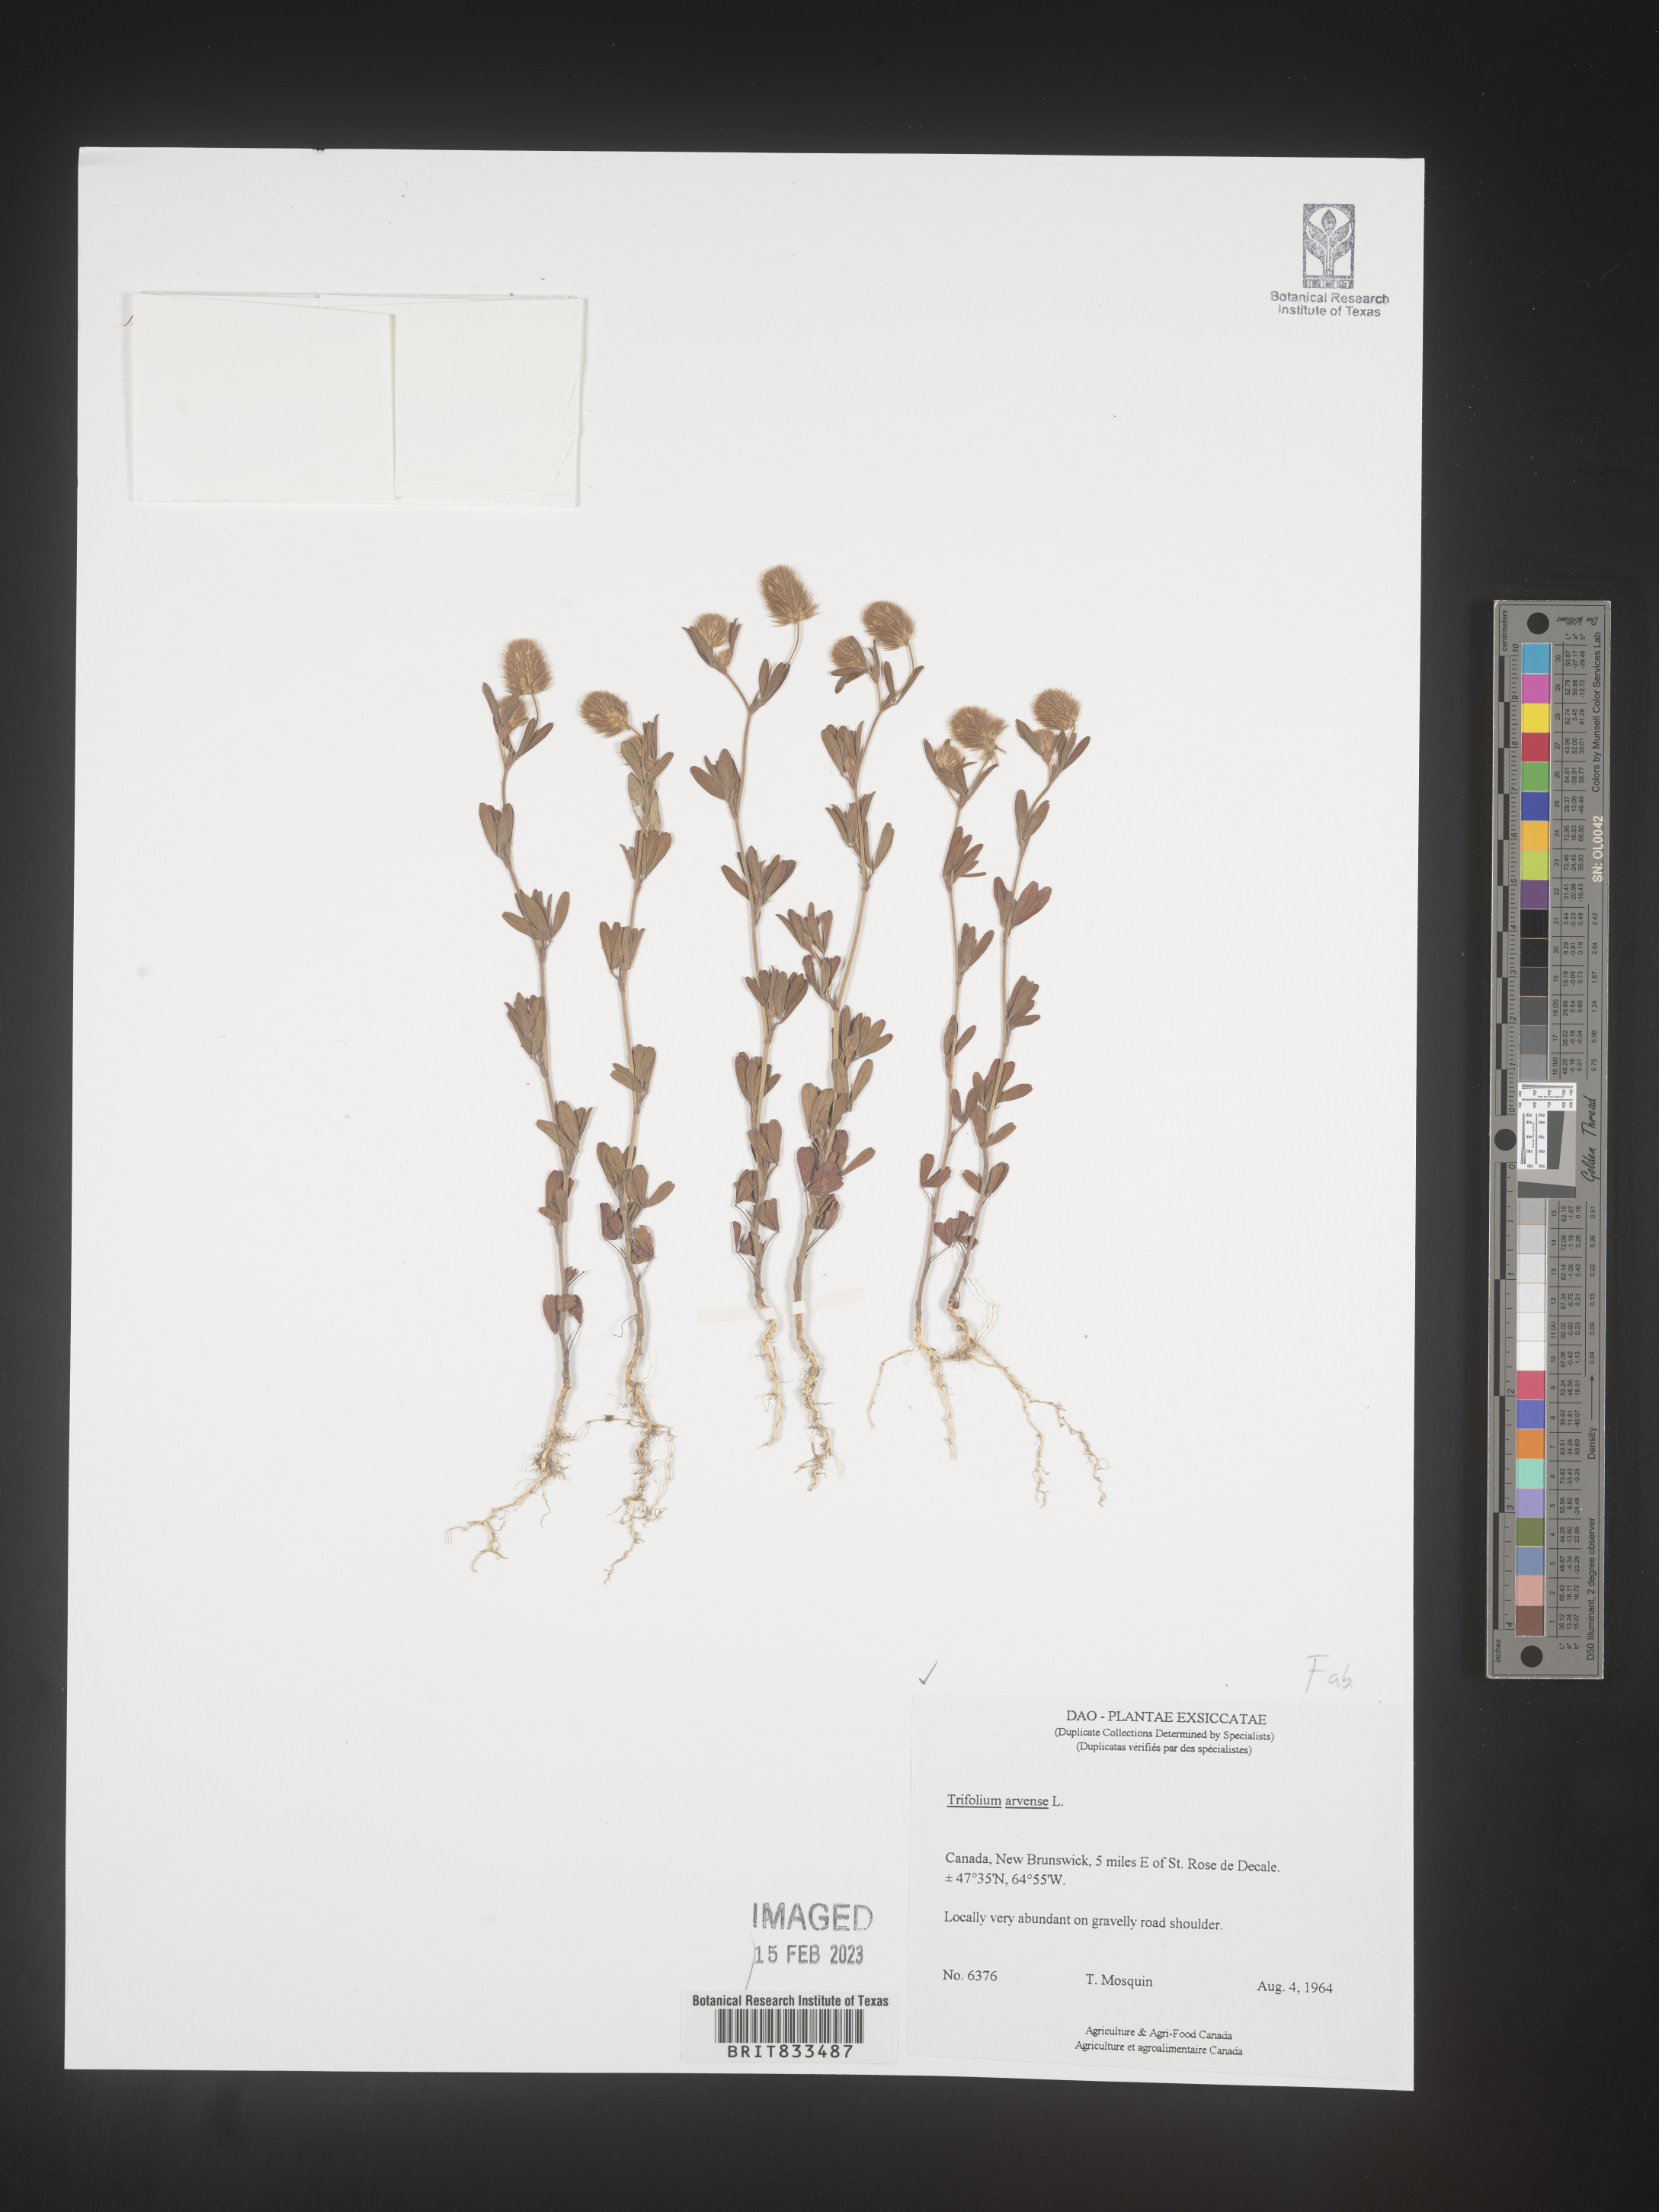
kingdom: Plantae
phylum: Tracheophyta
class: Magnoliopsida
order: Fabales
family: Fabaceae
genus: Trifolium
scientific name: Trifolium arvense
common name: Hare's-foot clover
